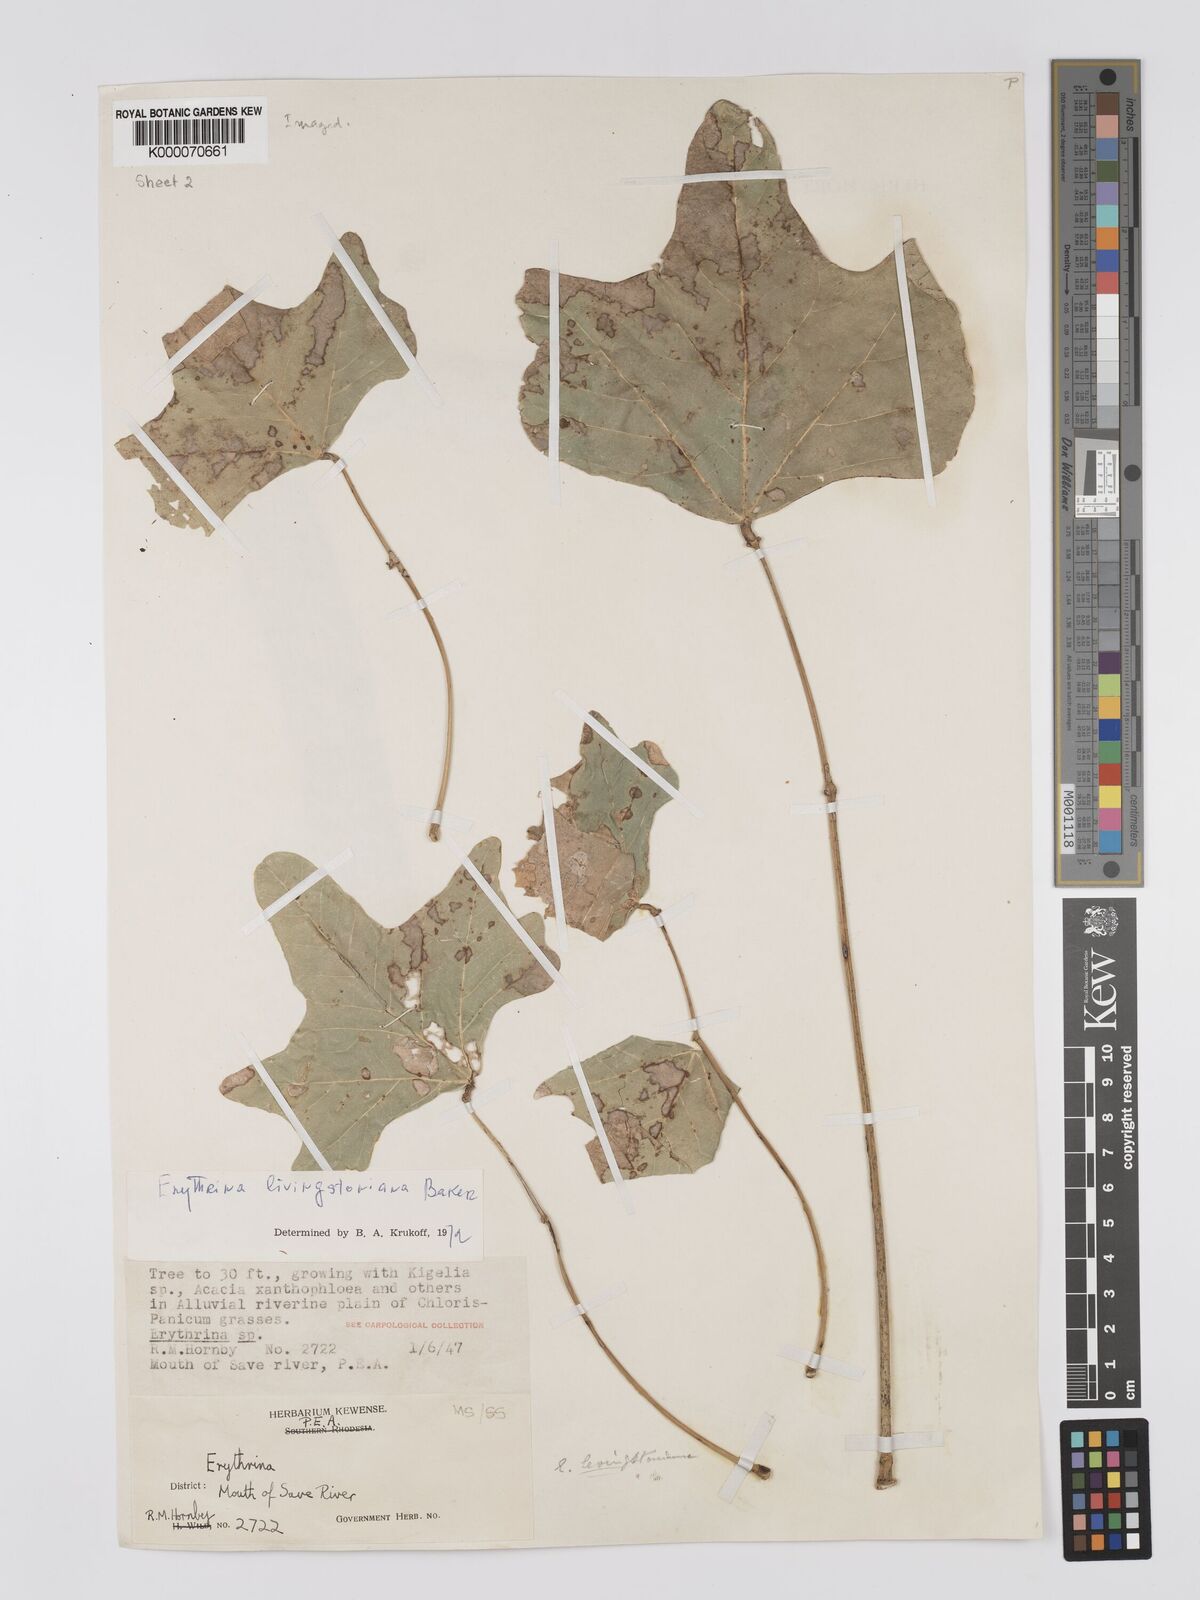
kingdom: Plantae
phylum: Tracheophyta
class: Magnoliopsida
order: Fabales
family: Fabaceae
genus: Erythrina
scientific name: Erythrina
